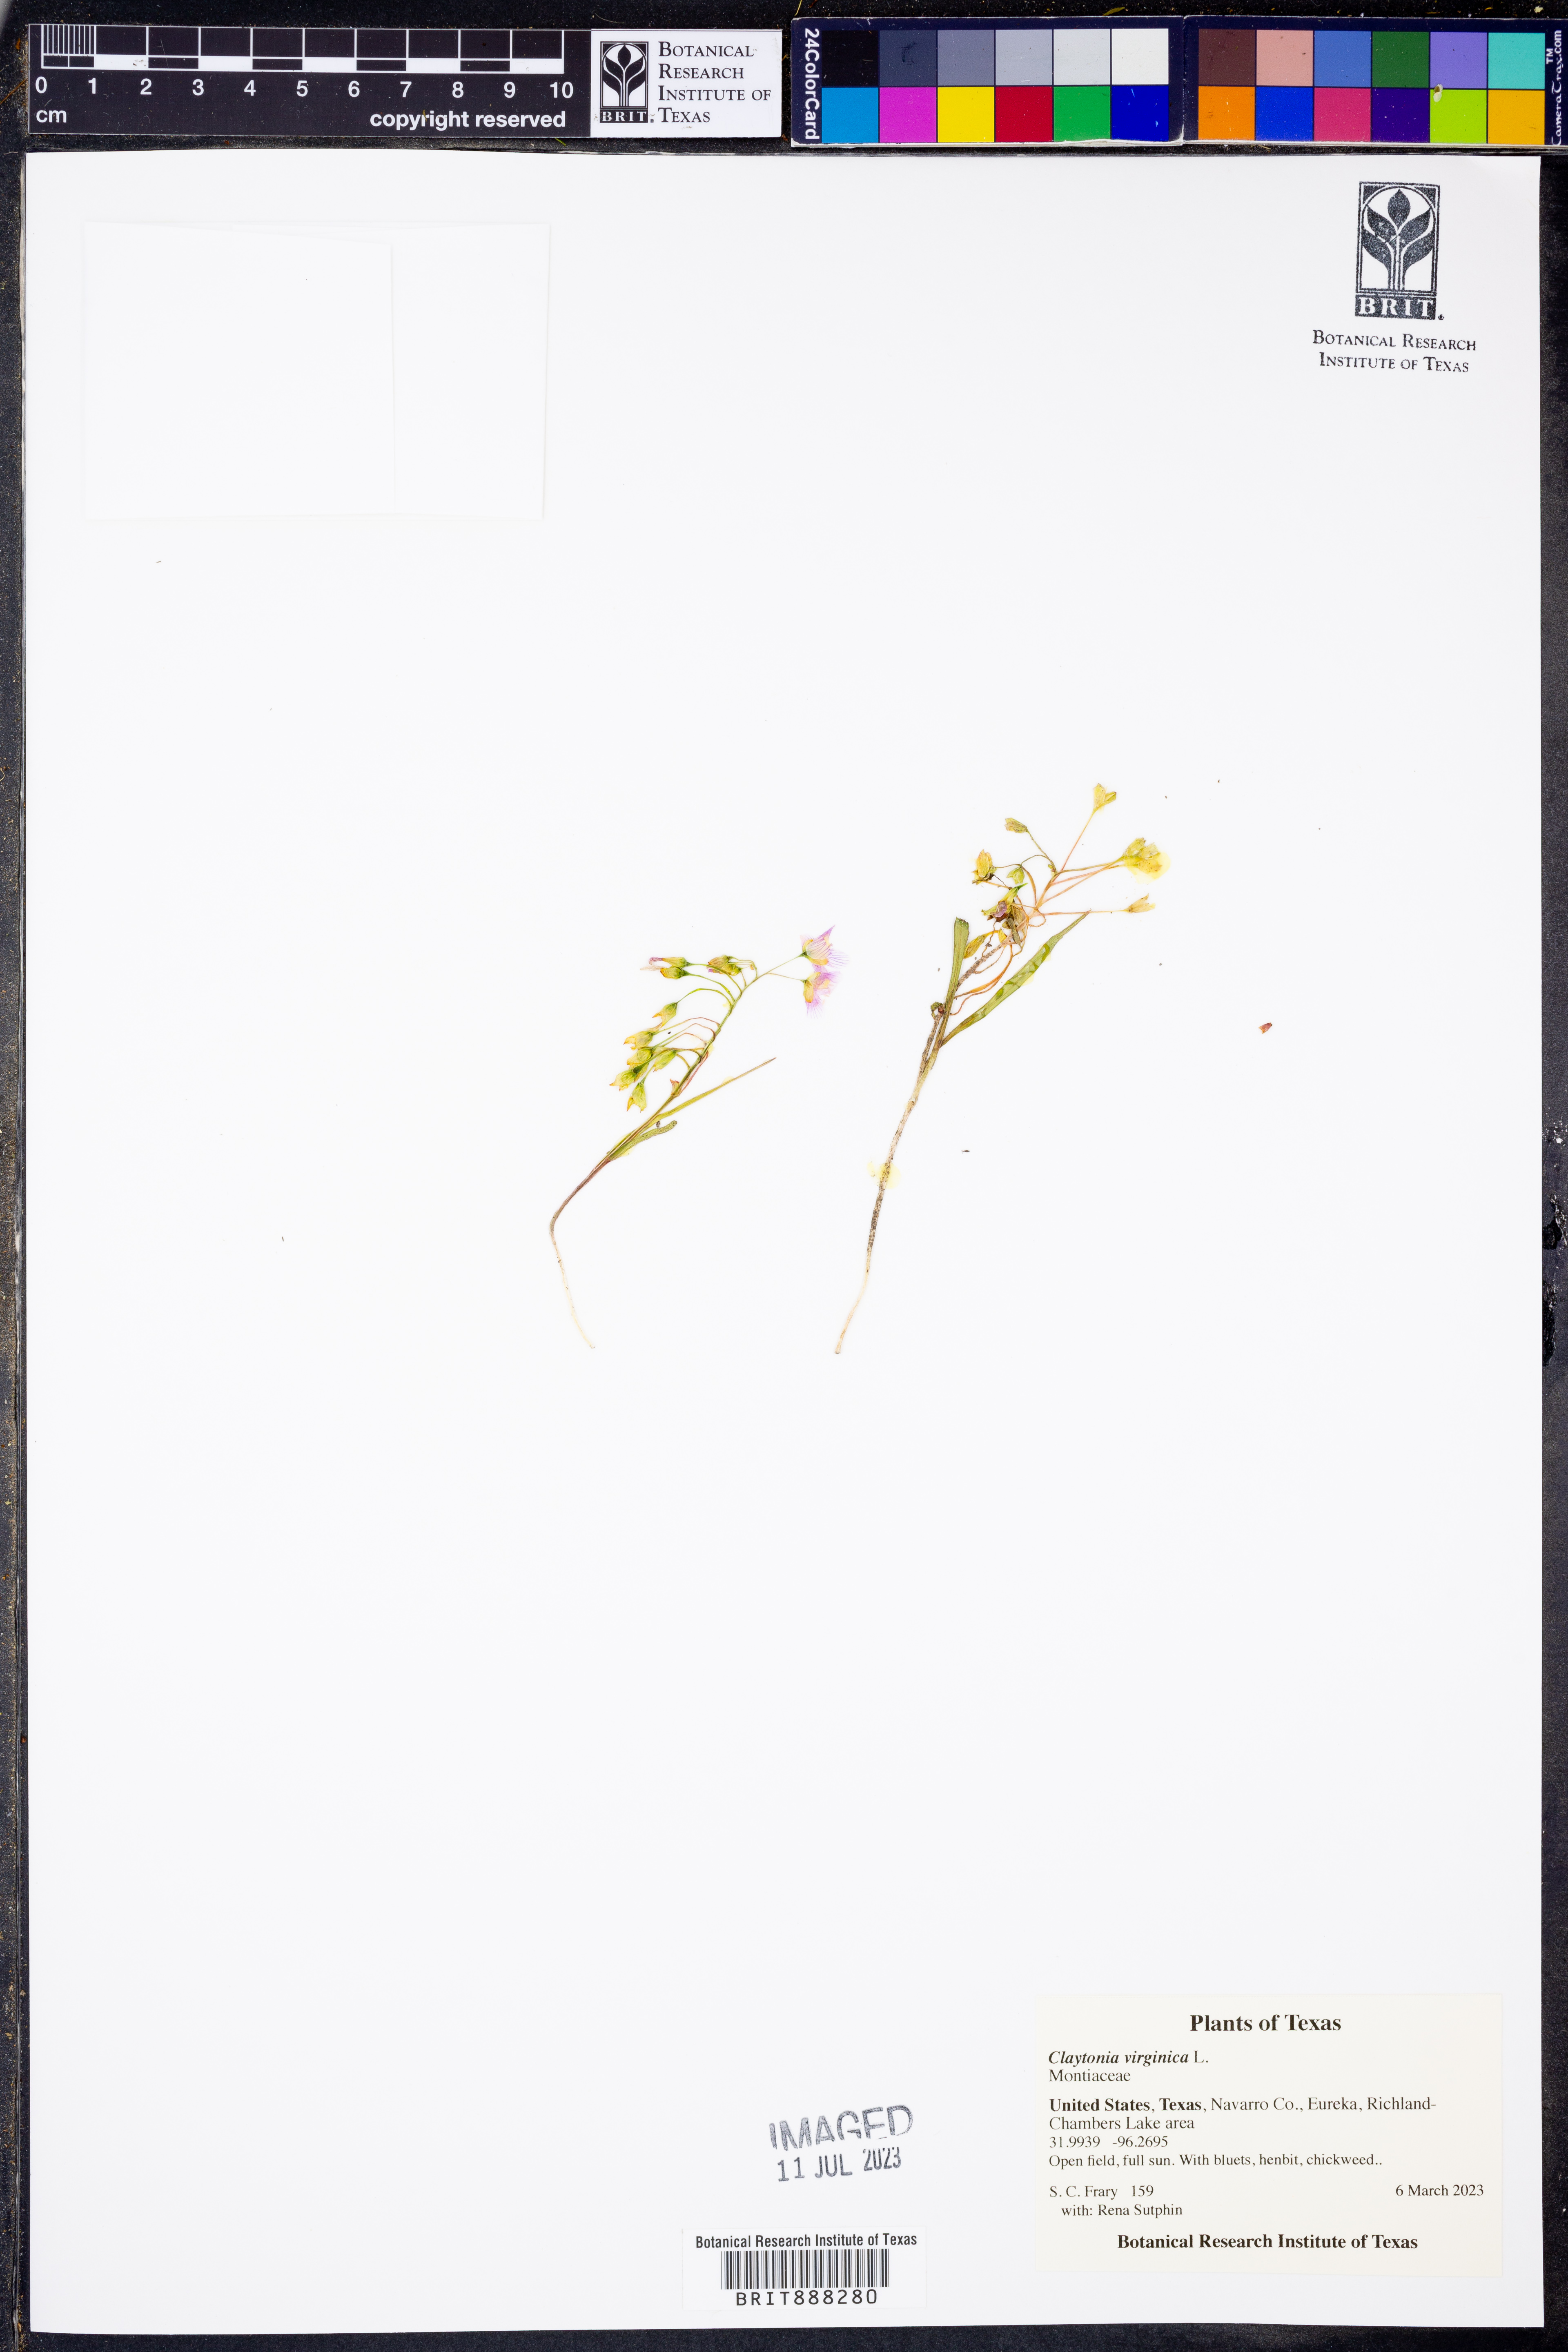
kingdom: Plantae
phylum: Tracheophyta
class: Magnoliopsida
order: Caryophyllales
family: Montiaceae
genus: Claytonia
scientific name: Claytonia virginica
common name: Virginia springbeauty
